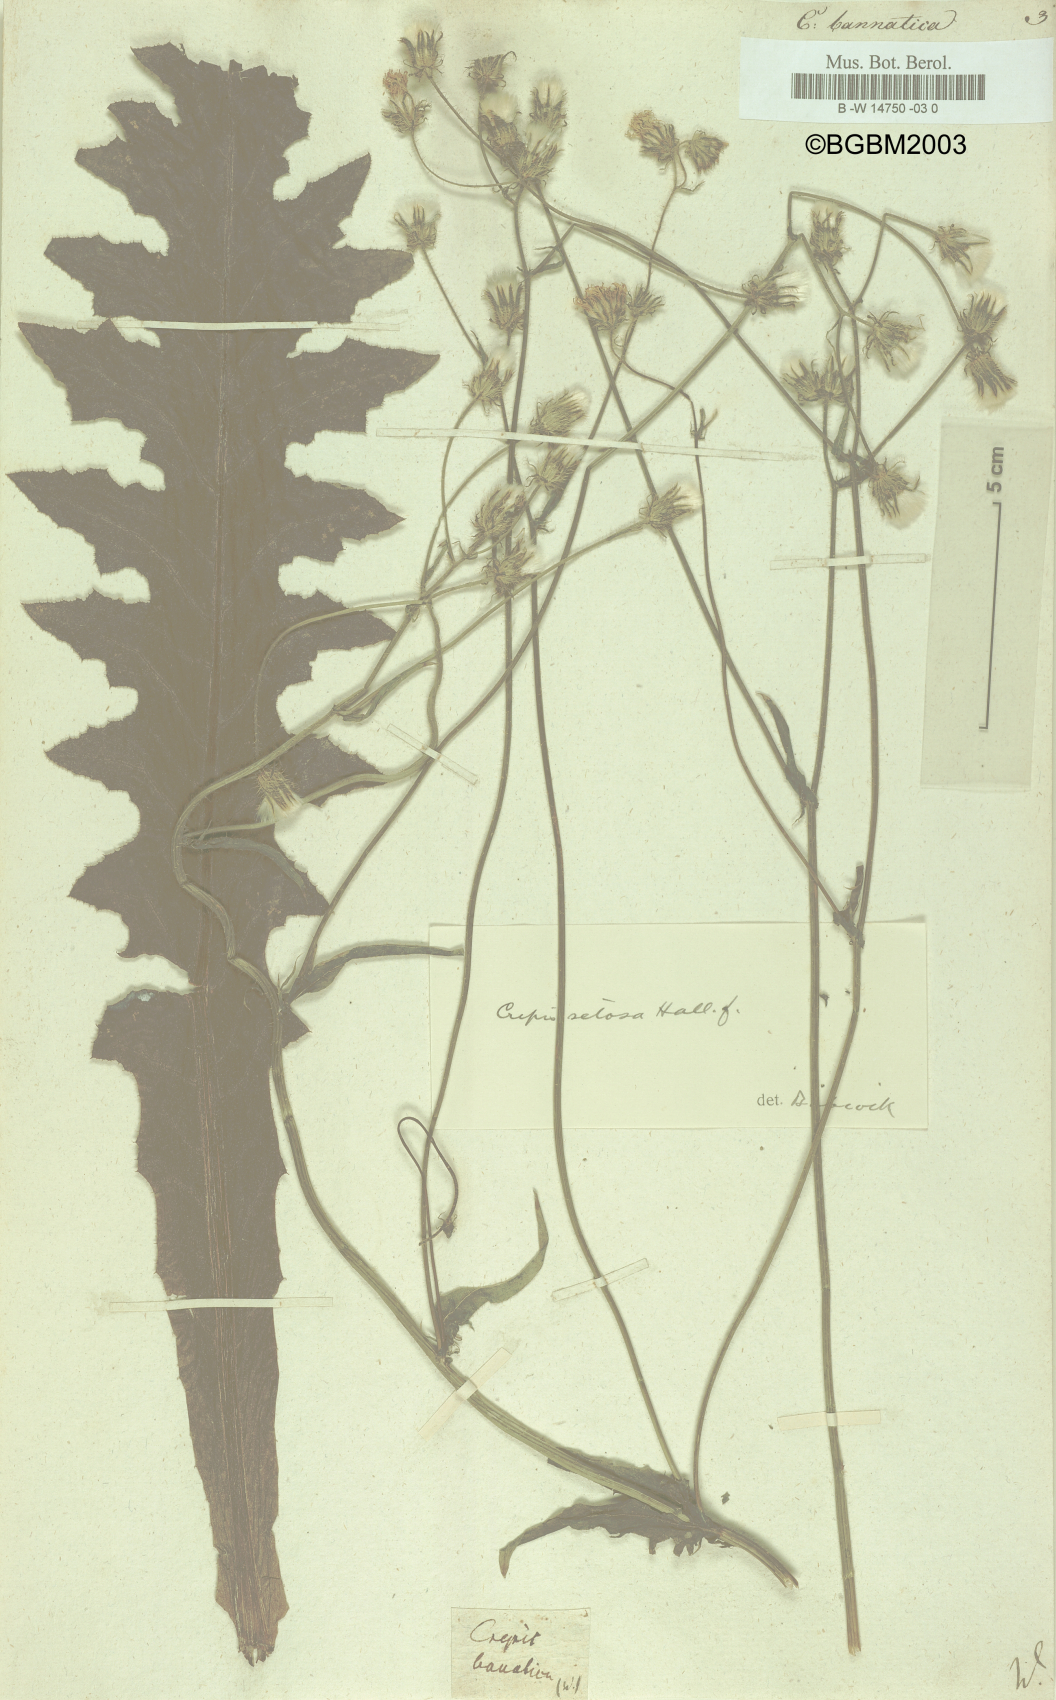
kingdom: Plantae
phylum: Tracheophyta
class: Magnoliopsida
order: Asterales
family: Asteraceae
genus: Crepis
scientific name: Crepis setosa
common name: Bristly hawk's-beard
